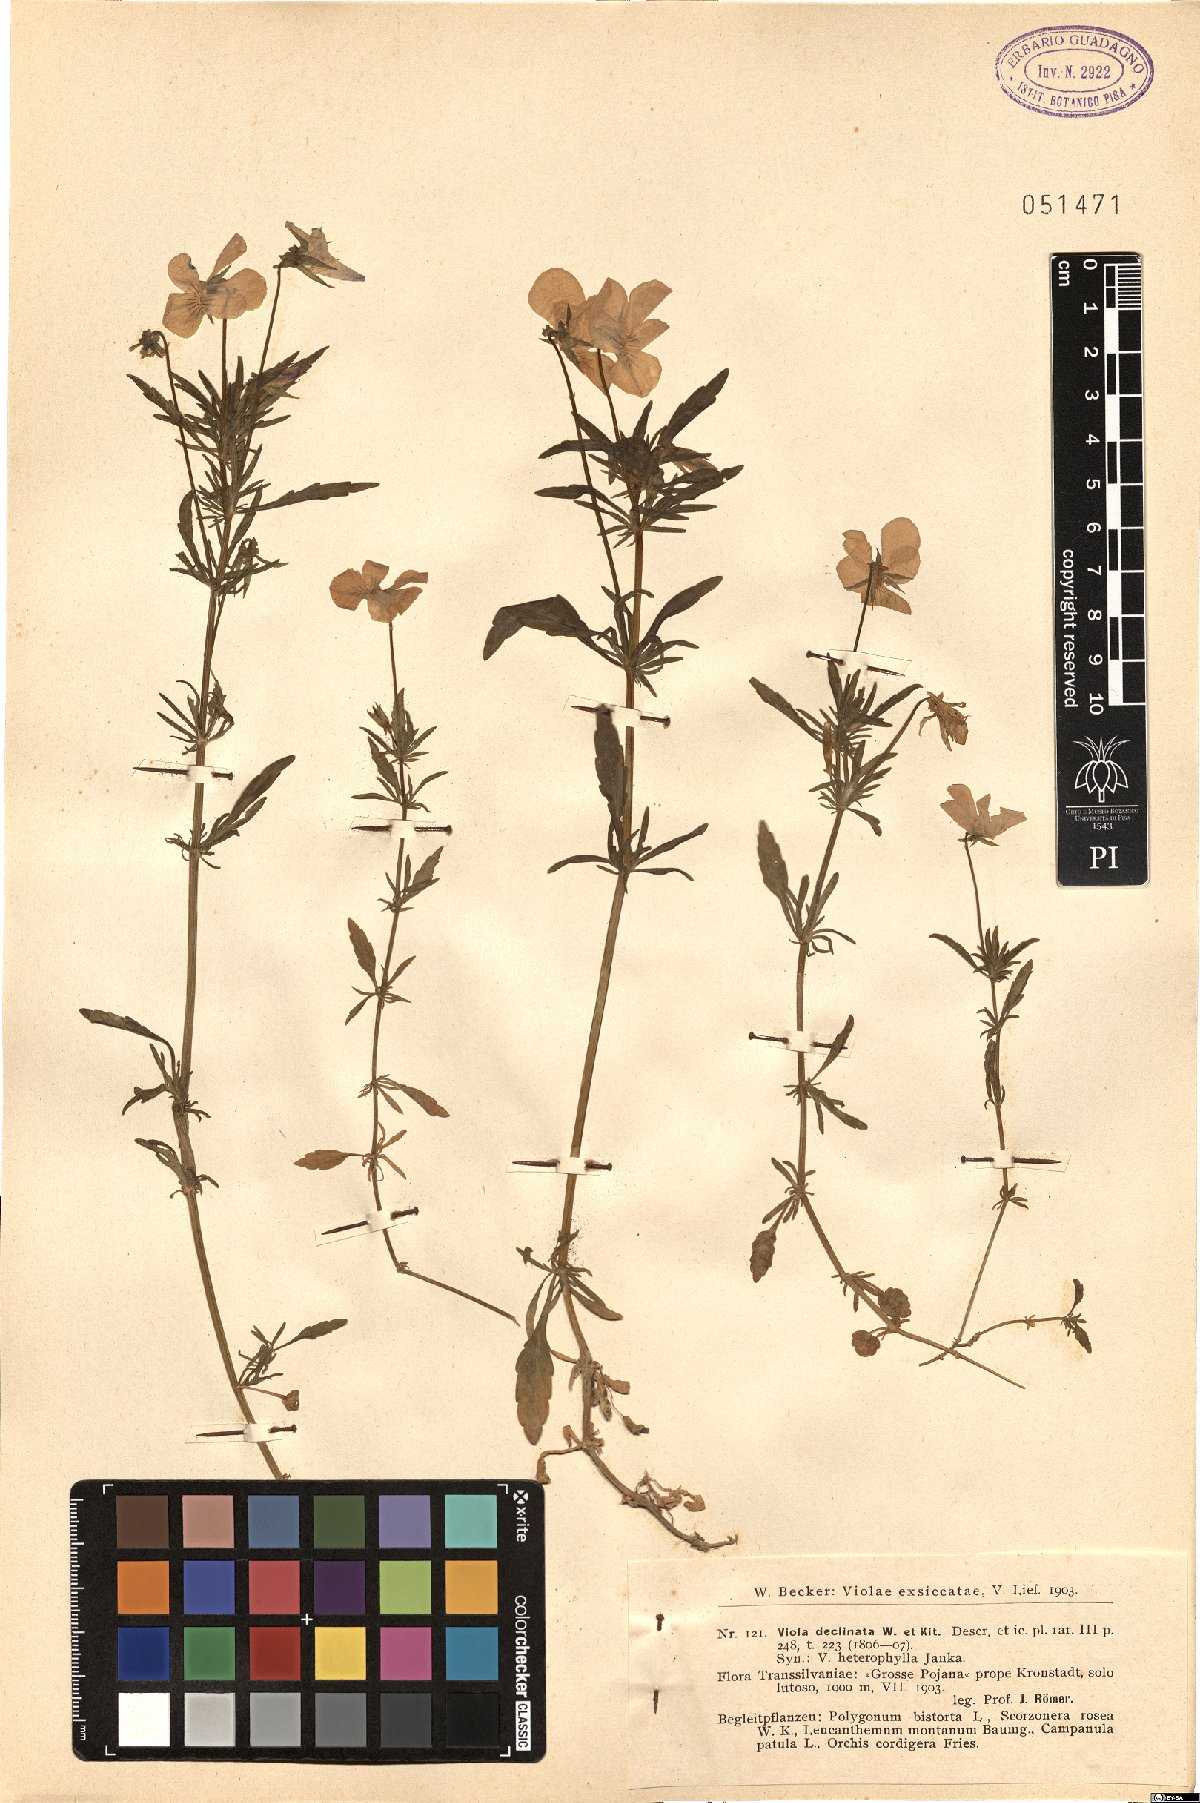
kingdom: Plantae
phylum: Tracheophyta
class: Magnoliopsida
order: Malpighiales
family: Violaceae
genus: Viola
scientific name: Viola declinata
